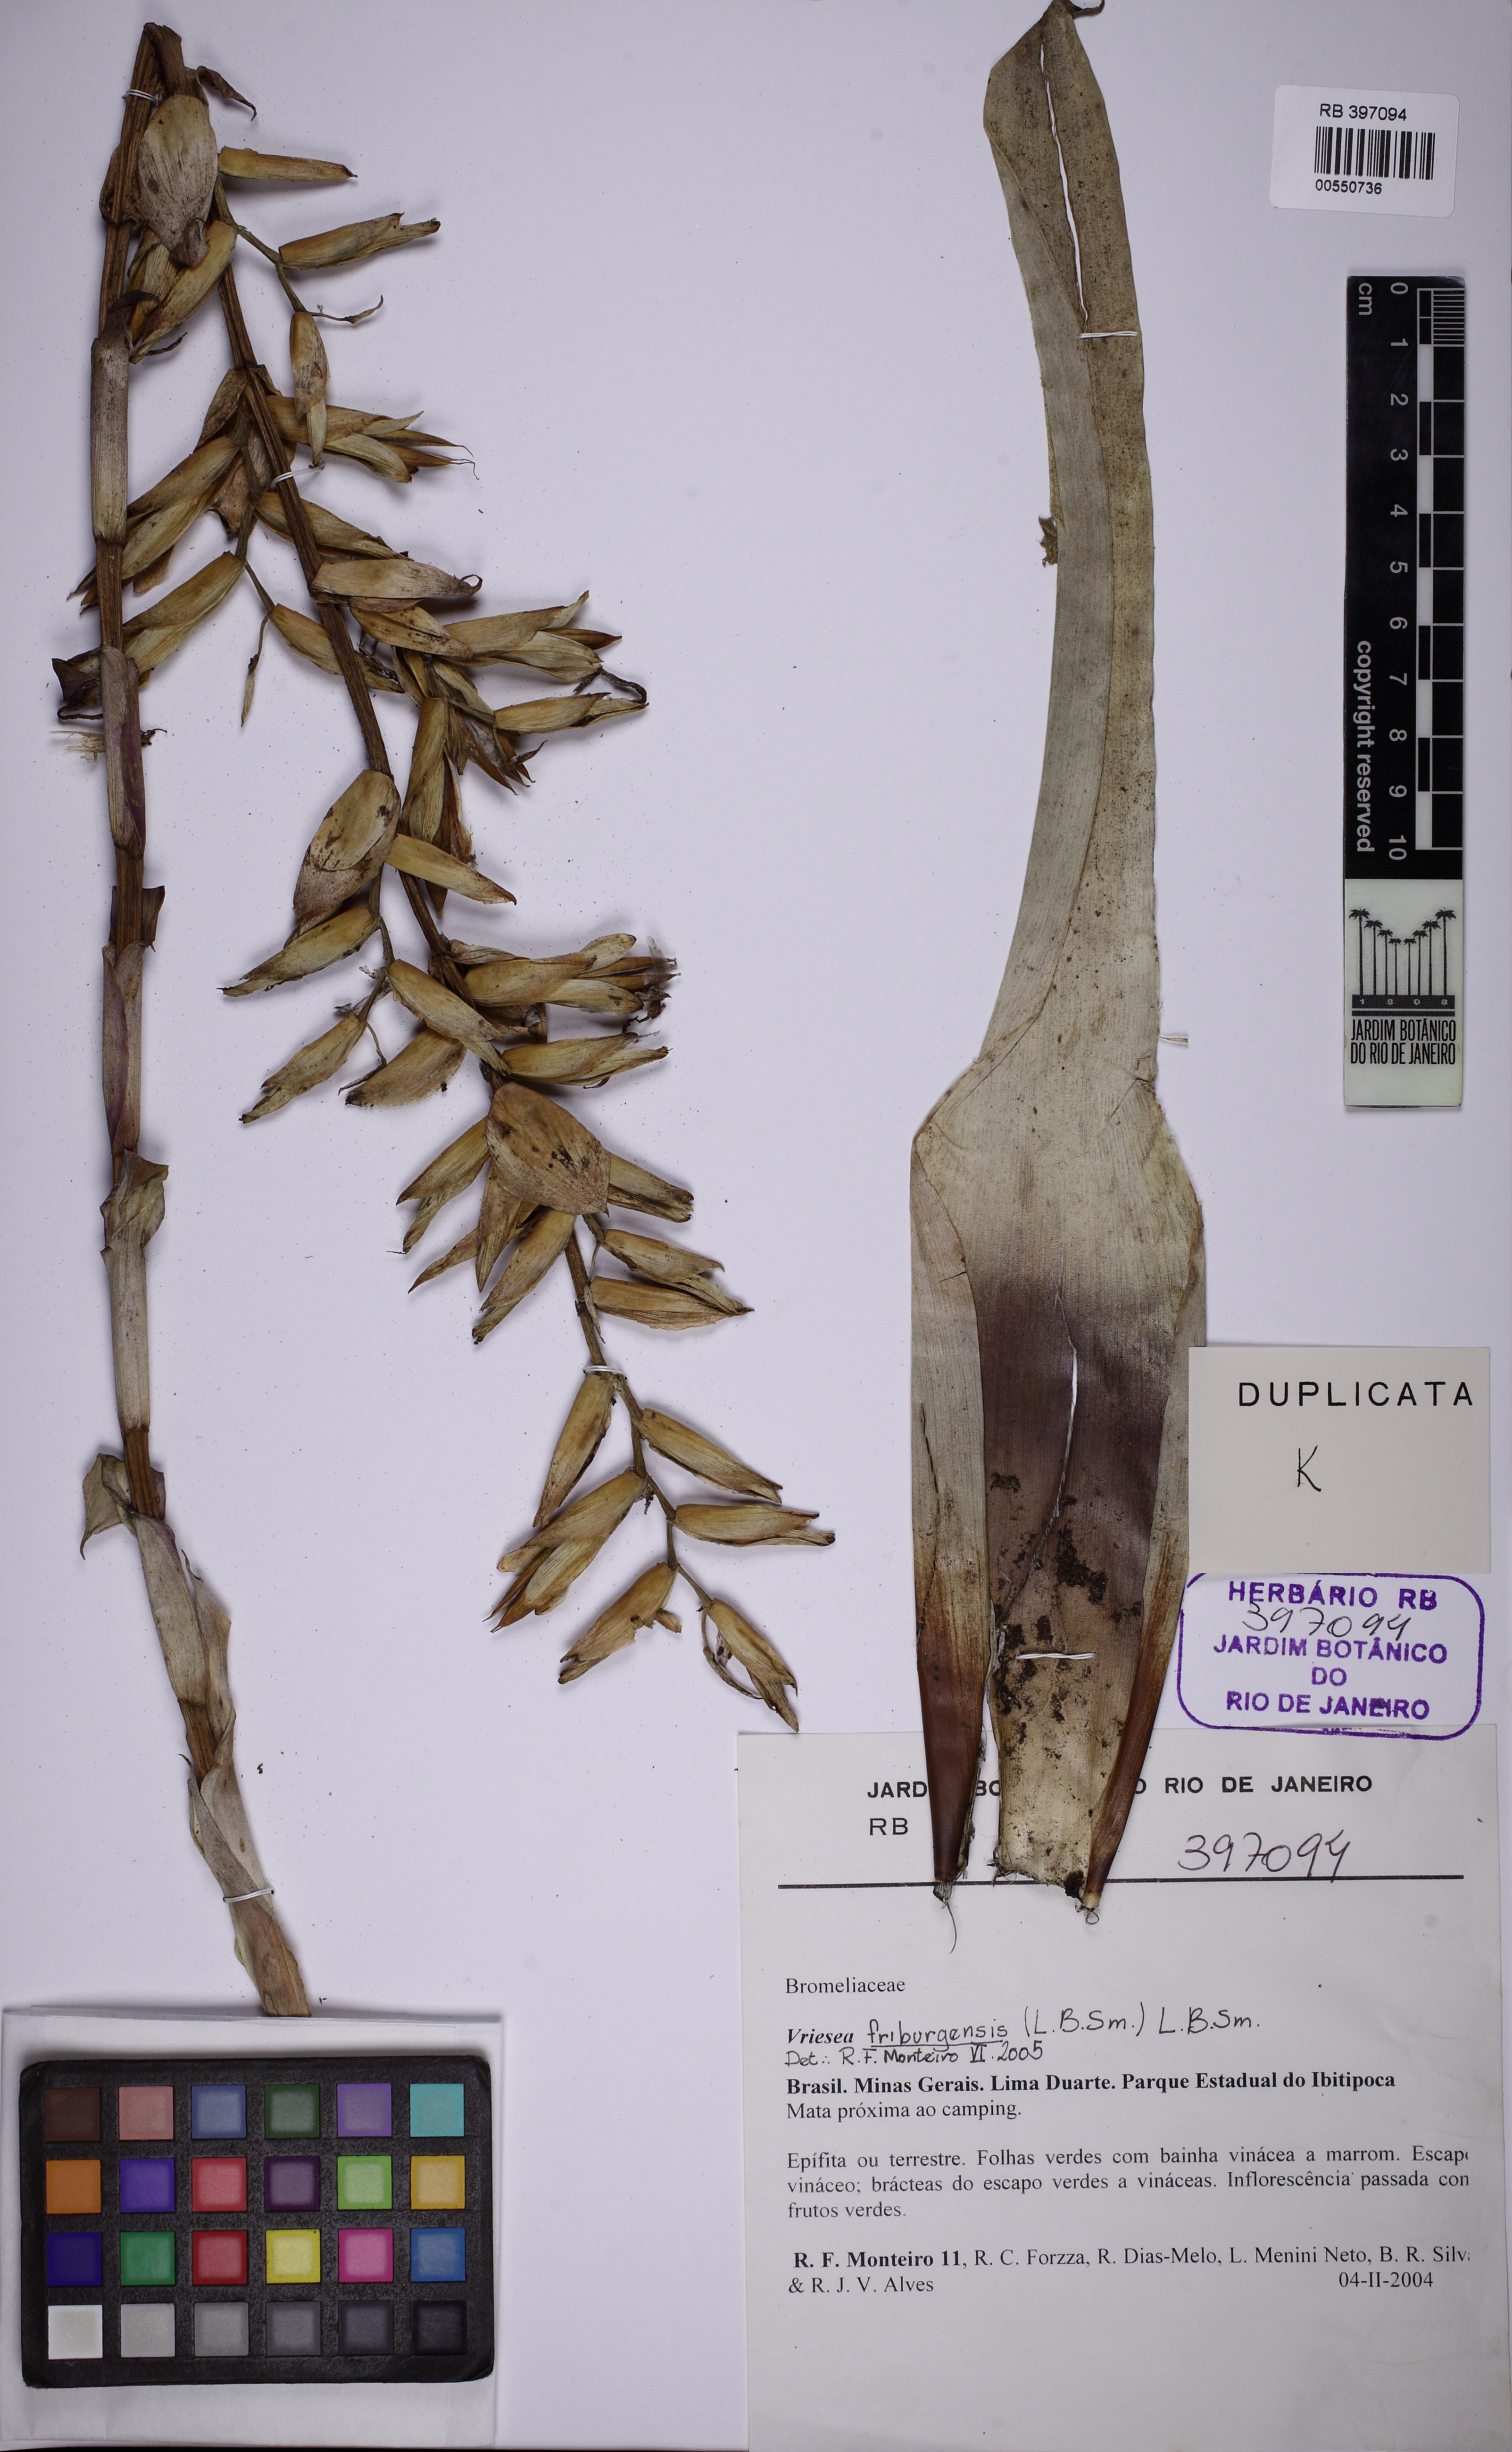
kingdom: Plantae
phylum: Tracheophyta
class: Liliopsida
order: Poales
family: Bromeliaceae
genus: Vriesea
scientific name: Vriesea friburgensis
